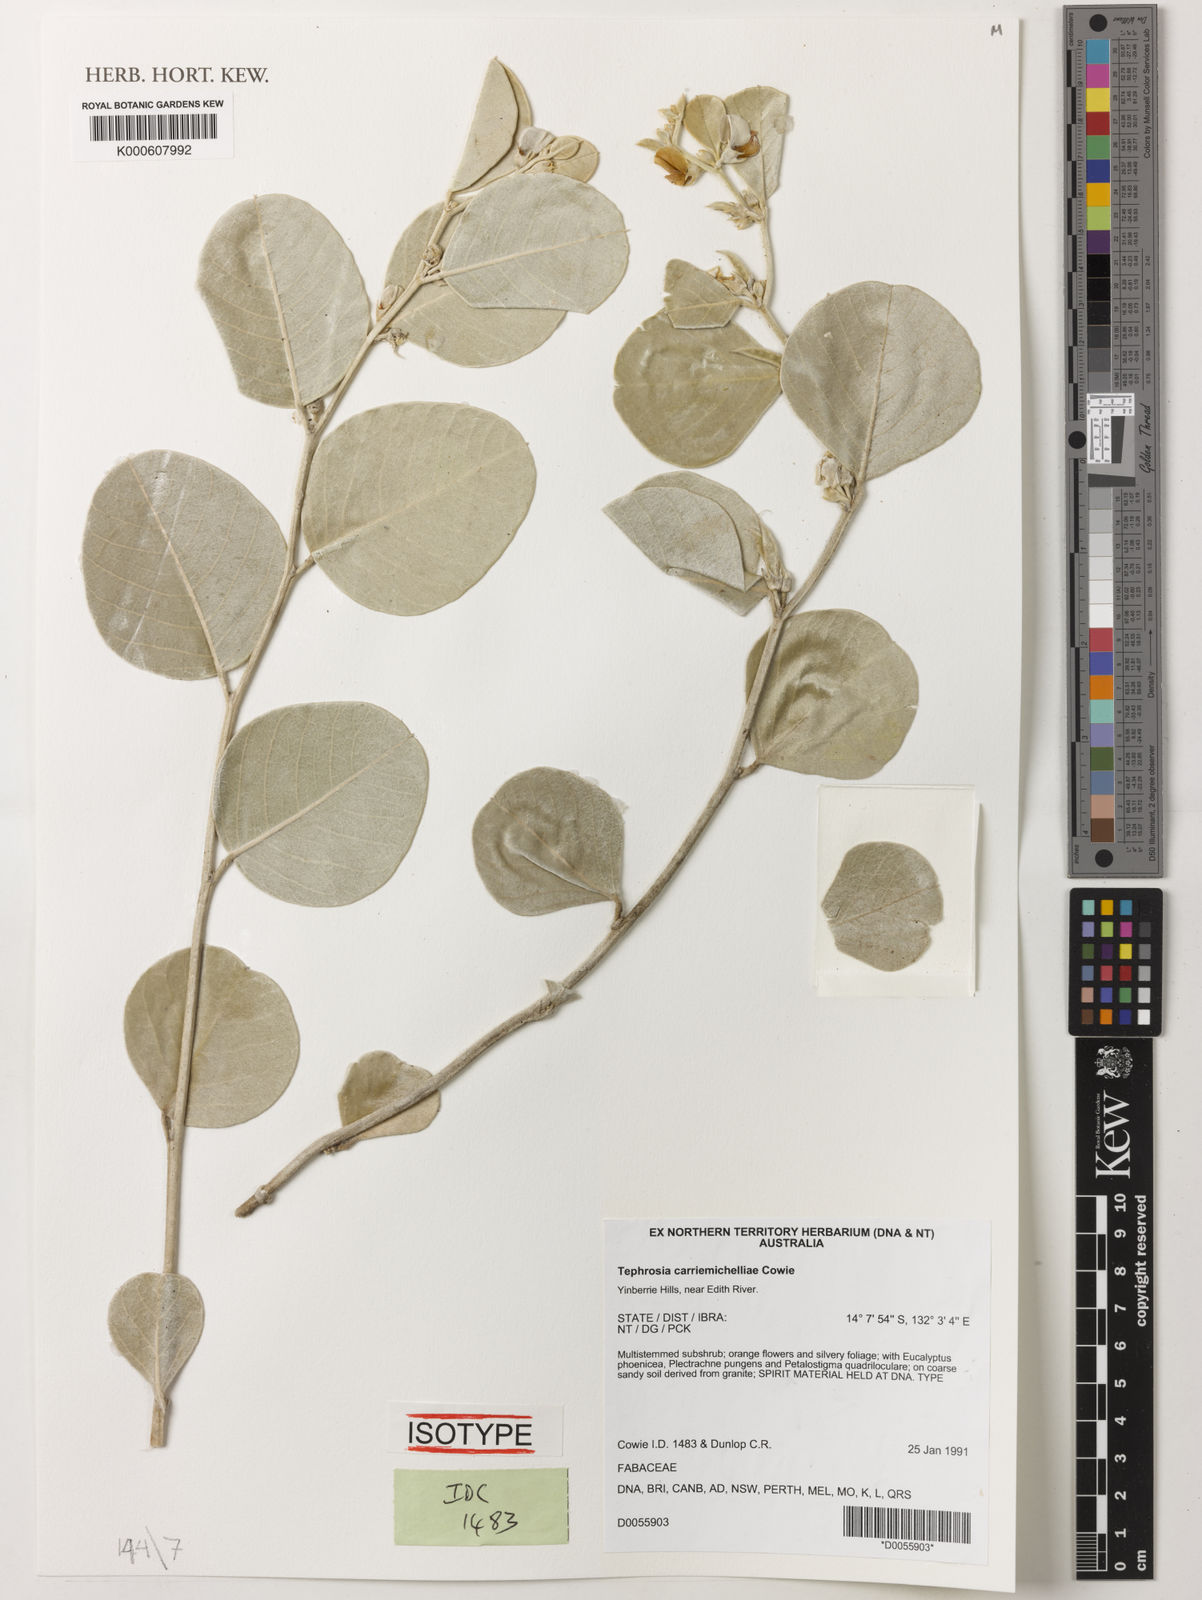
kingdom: Plantae
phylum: Tracheophyta
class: Magnoliopsida
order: Fabales
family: Fabaceae
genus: Tephrosia
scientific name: Tephrosia carriemichelliae
